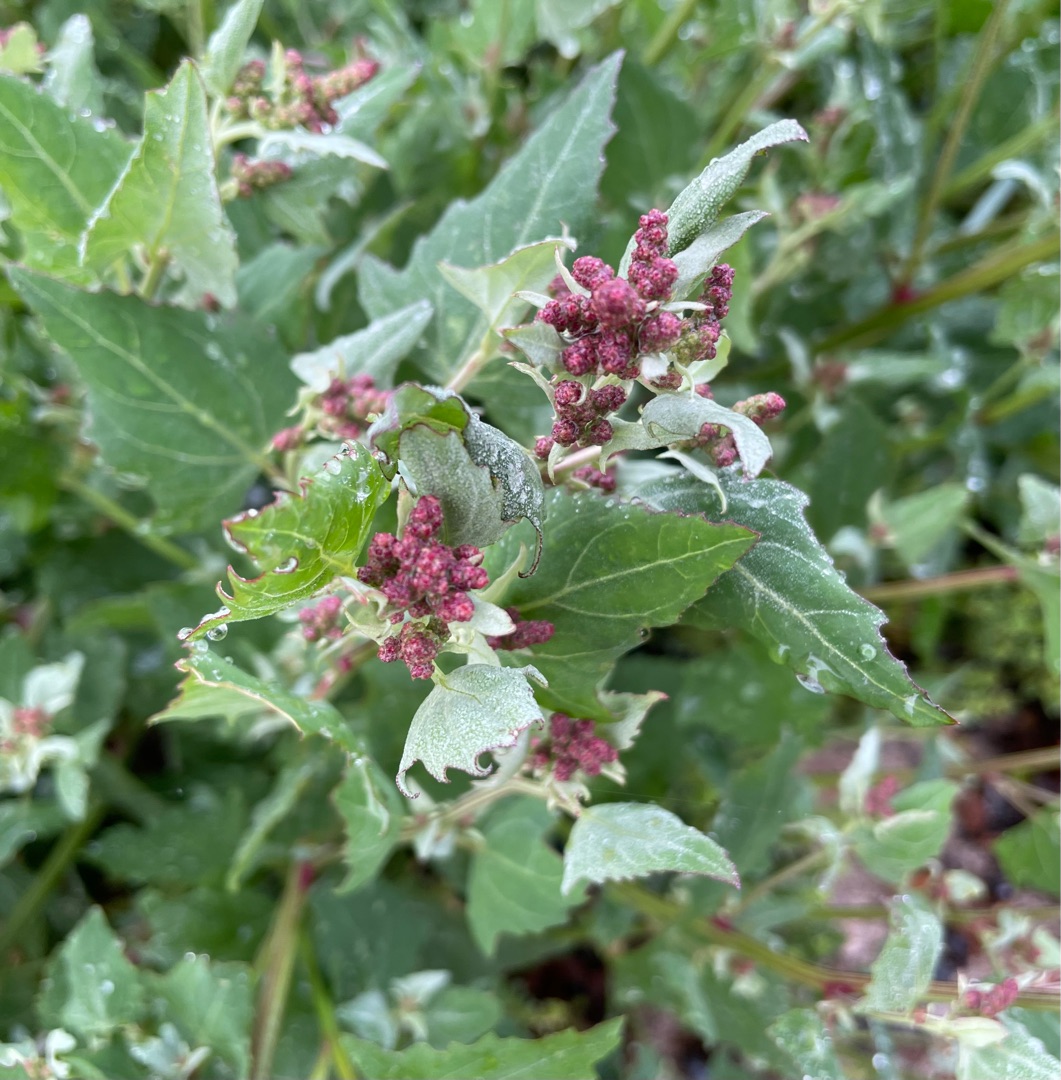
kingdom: Plantae
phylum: Tracheophyta
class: Magnoliopsida
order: Caryophyllales
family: Amaranthaceae
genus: Atriplex
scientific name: Atriplex prostrata
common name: Spyd-mælde
